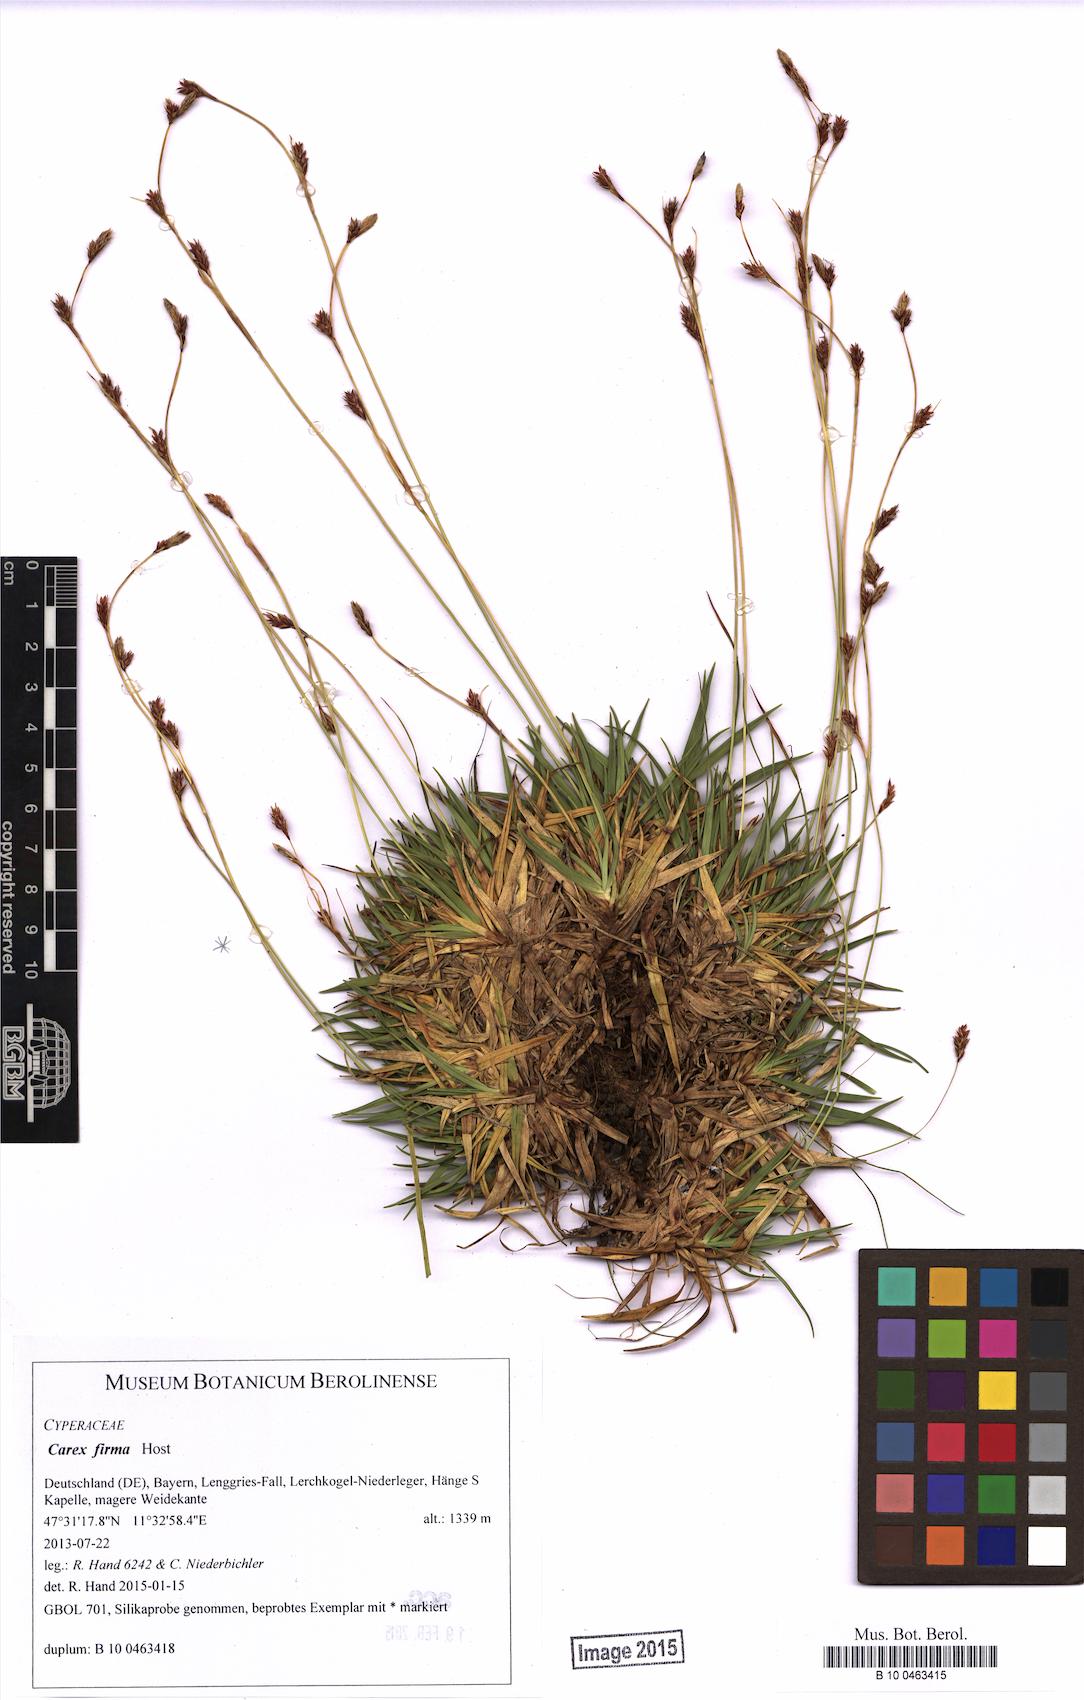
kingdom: Plantae
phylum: Tracheophyta
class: Liliopsida
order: Poales
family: Cyperaceae
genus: Carex
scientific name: Carex firma
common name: Dwarf pillow sedge
